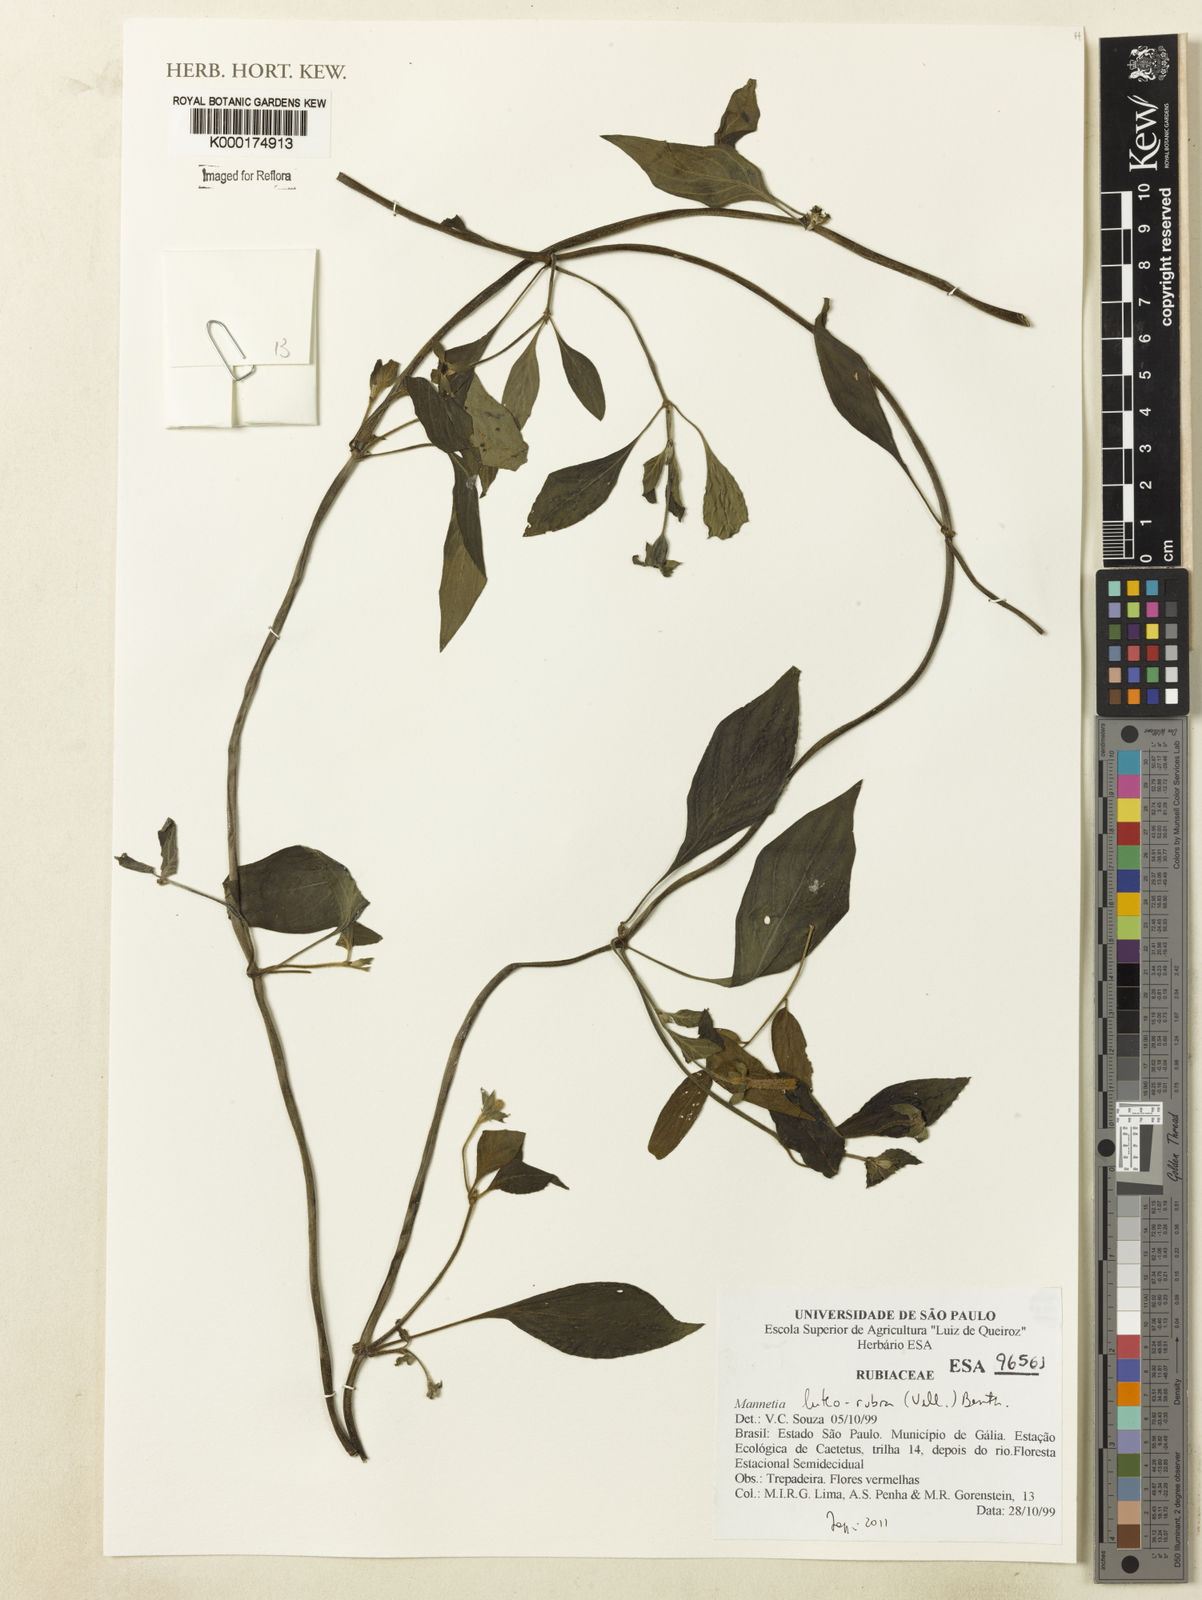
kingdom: Plantae
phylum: Tracheophyta
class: Magnoliopsida
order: Gentianales
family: Rubiaceae
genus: Manettia
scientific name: Manettia luteorubra
